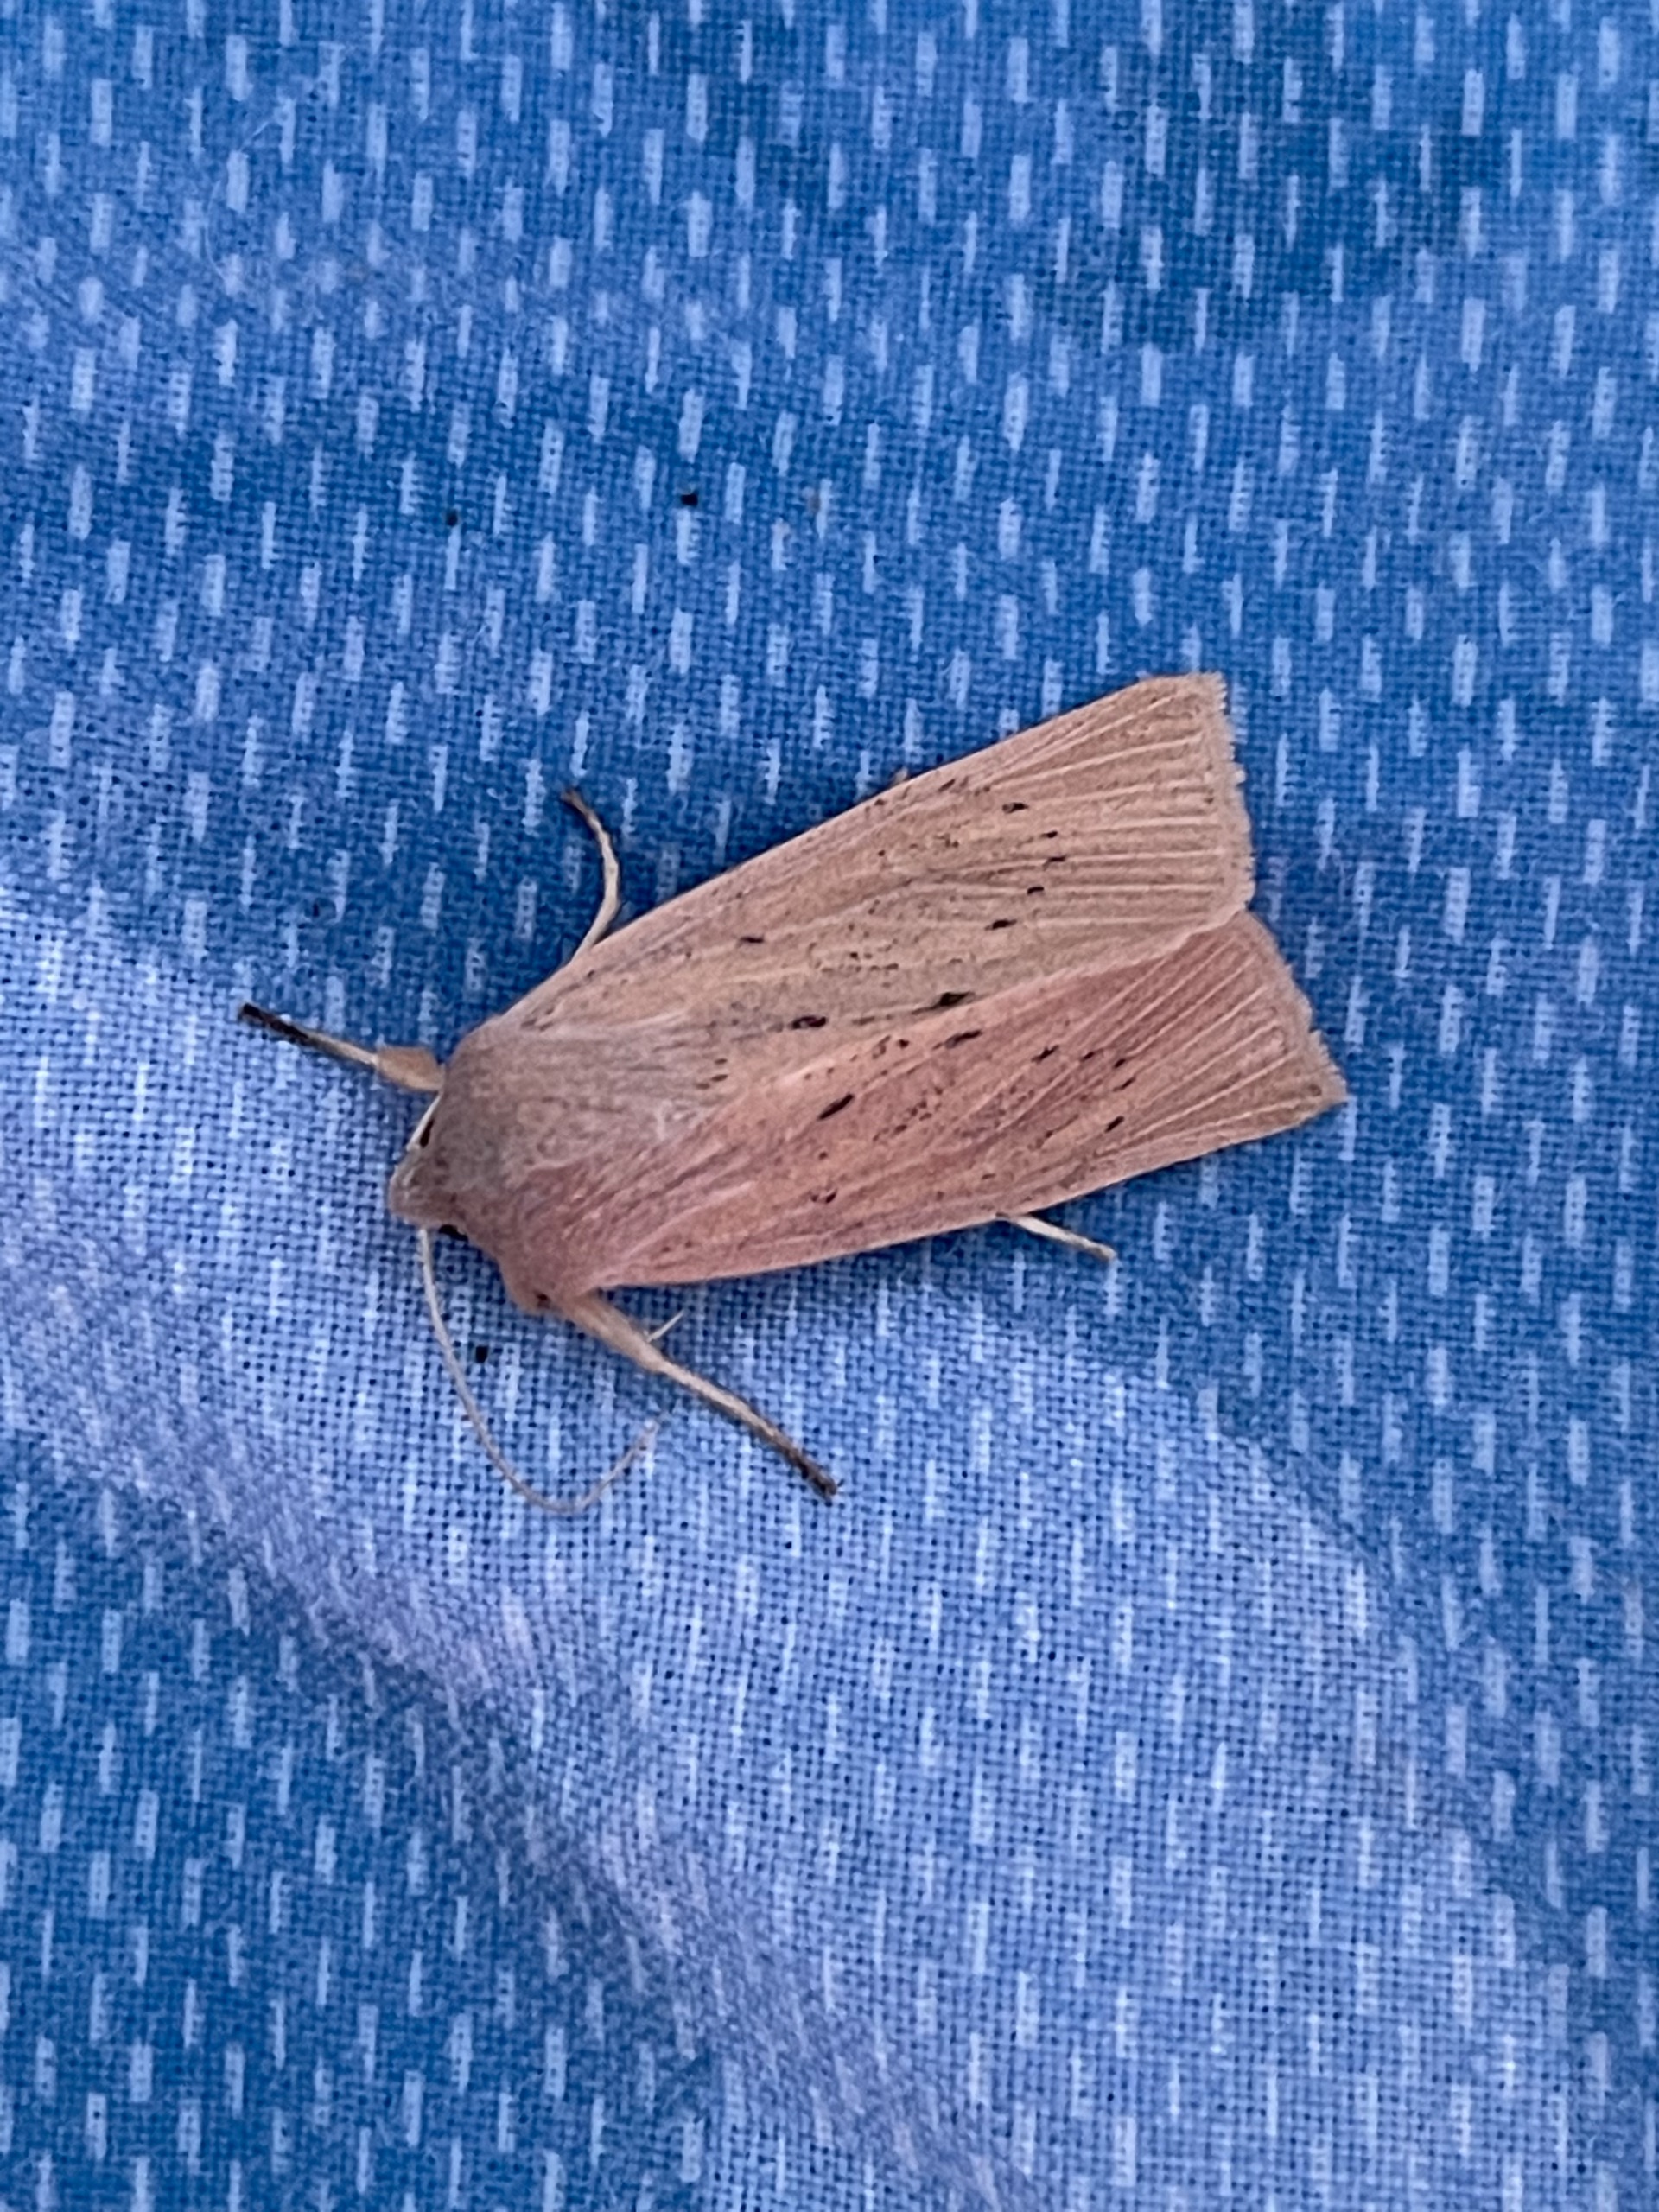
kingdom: Animalia
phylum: Arthropoda
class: Insecta
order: Lepidoptera
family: Noctuidae
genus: Rhizedra
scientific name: Rhizedra lutosa
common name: Stor sivugle
